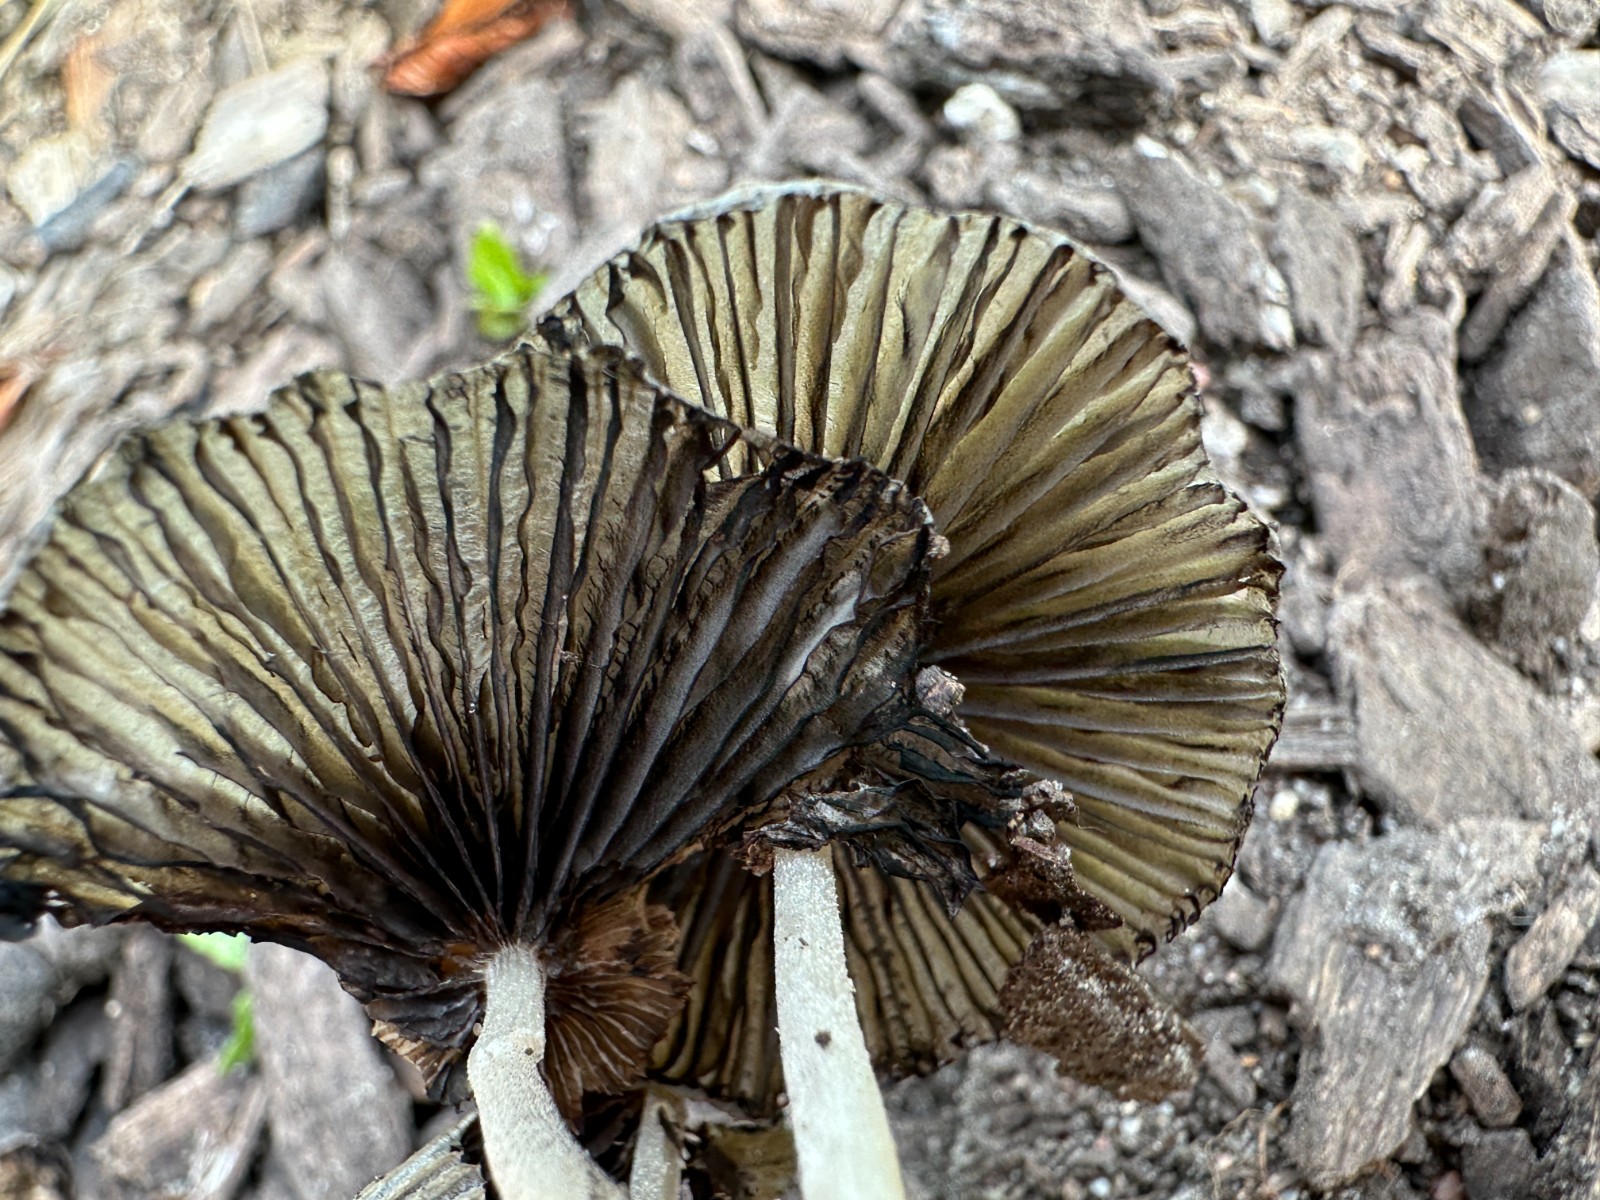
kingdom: Fungi
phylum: Basidiomycota
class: Agaricomycetes
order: Agaricales
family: Psathyrellaceae
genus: Tulosesus
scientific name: Tulosesus
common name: blækhat
